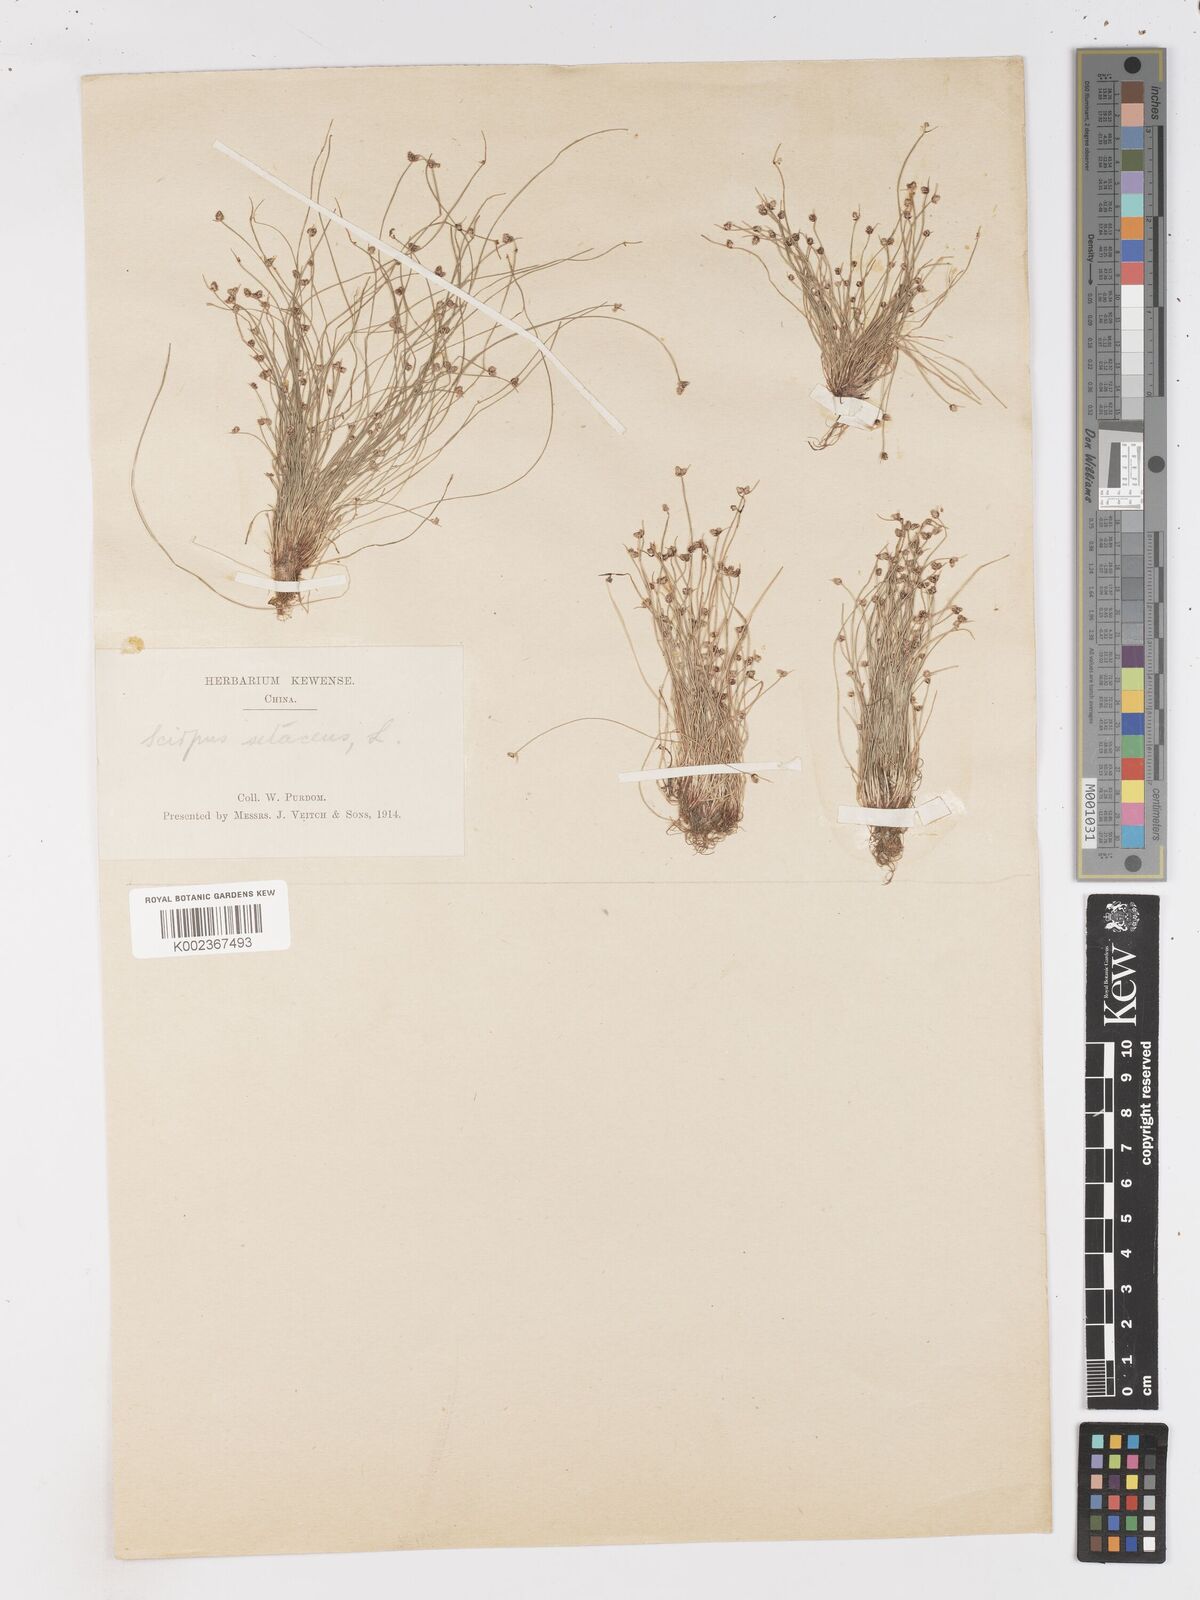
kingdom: Plantae
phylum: Tracheophyta
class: Liliopsida
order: Poales
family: Cyperaceae
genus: Isolepis
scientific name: Isolepis setacea
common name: Bristle club-rush
